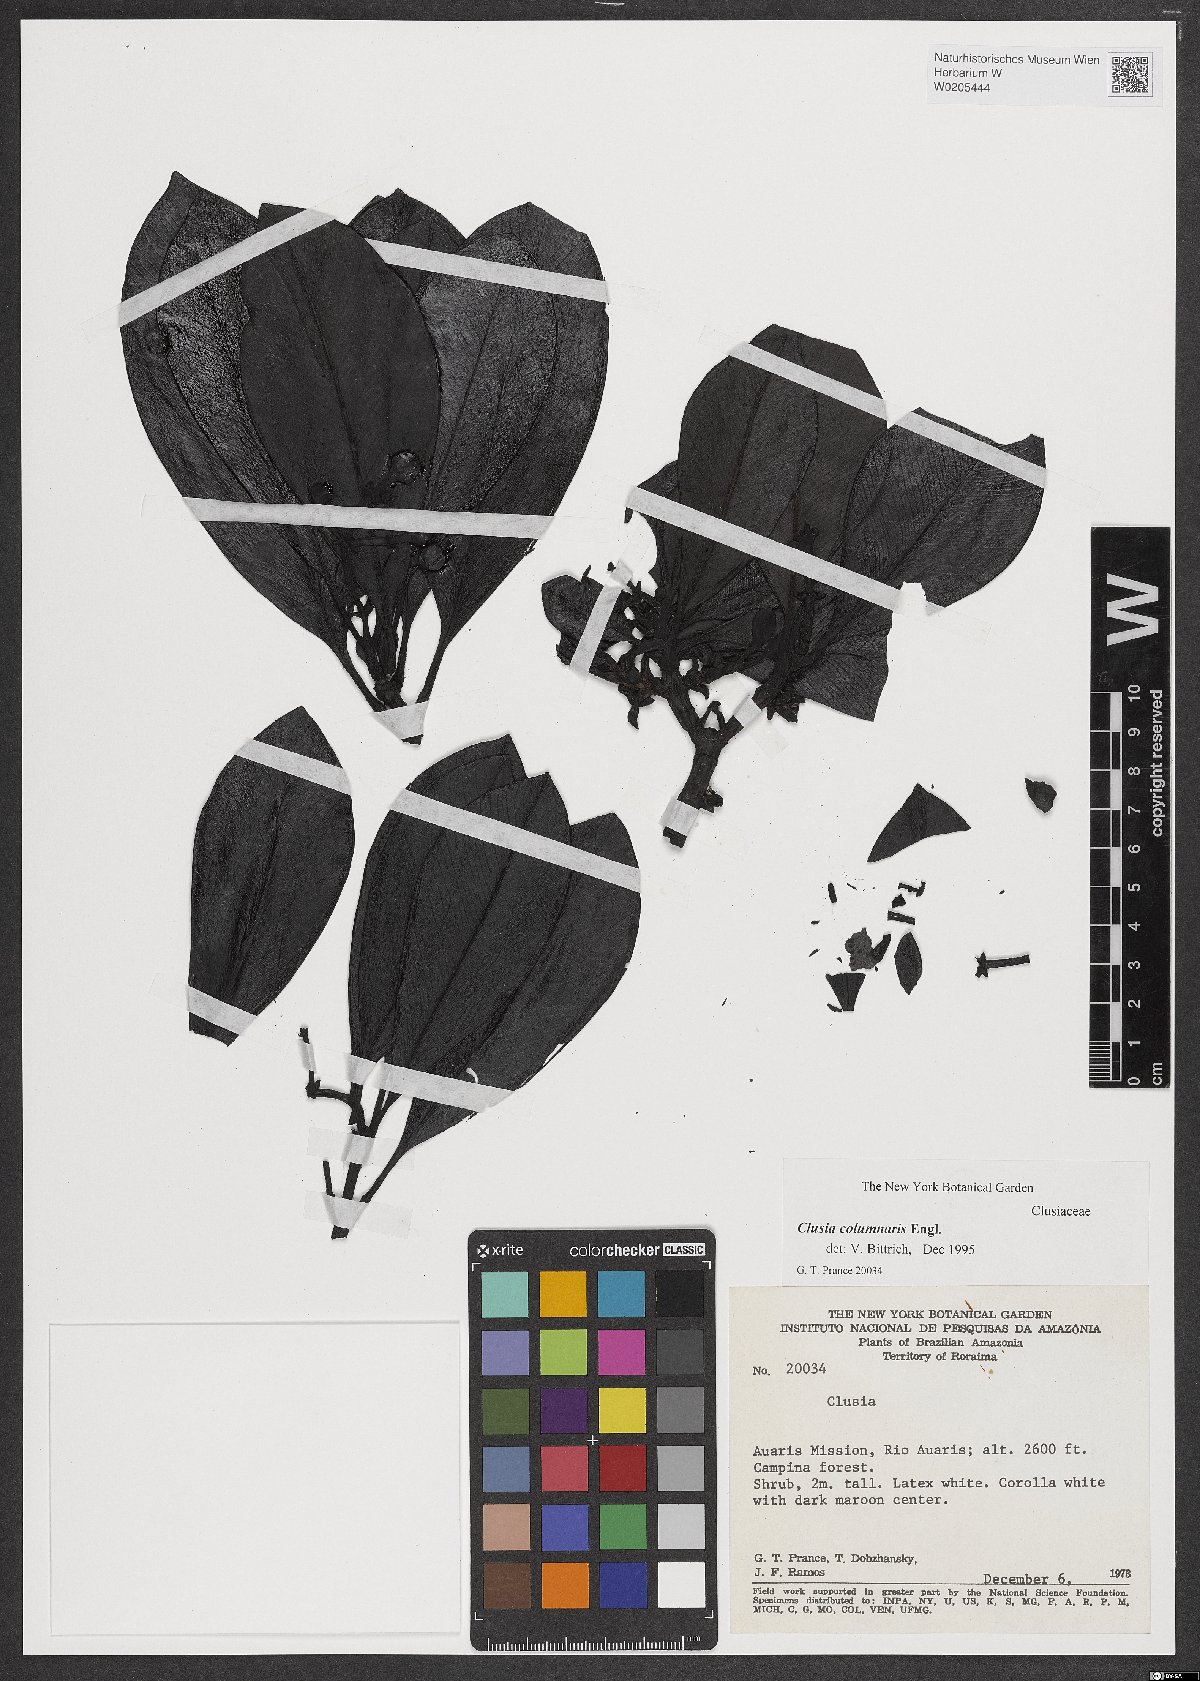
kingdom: Plantae
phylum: Tracheophyta
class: Magnoliopsida
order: Malpighiales
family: Clusiaceae
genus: Clusia
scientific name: Clusia columnaris
